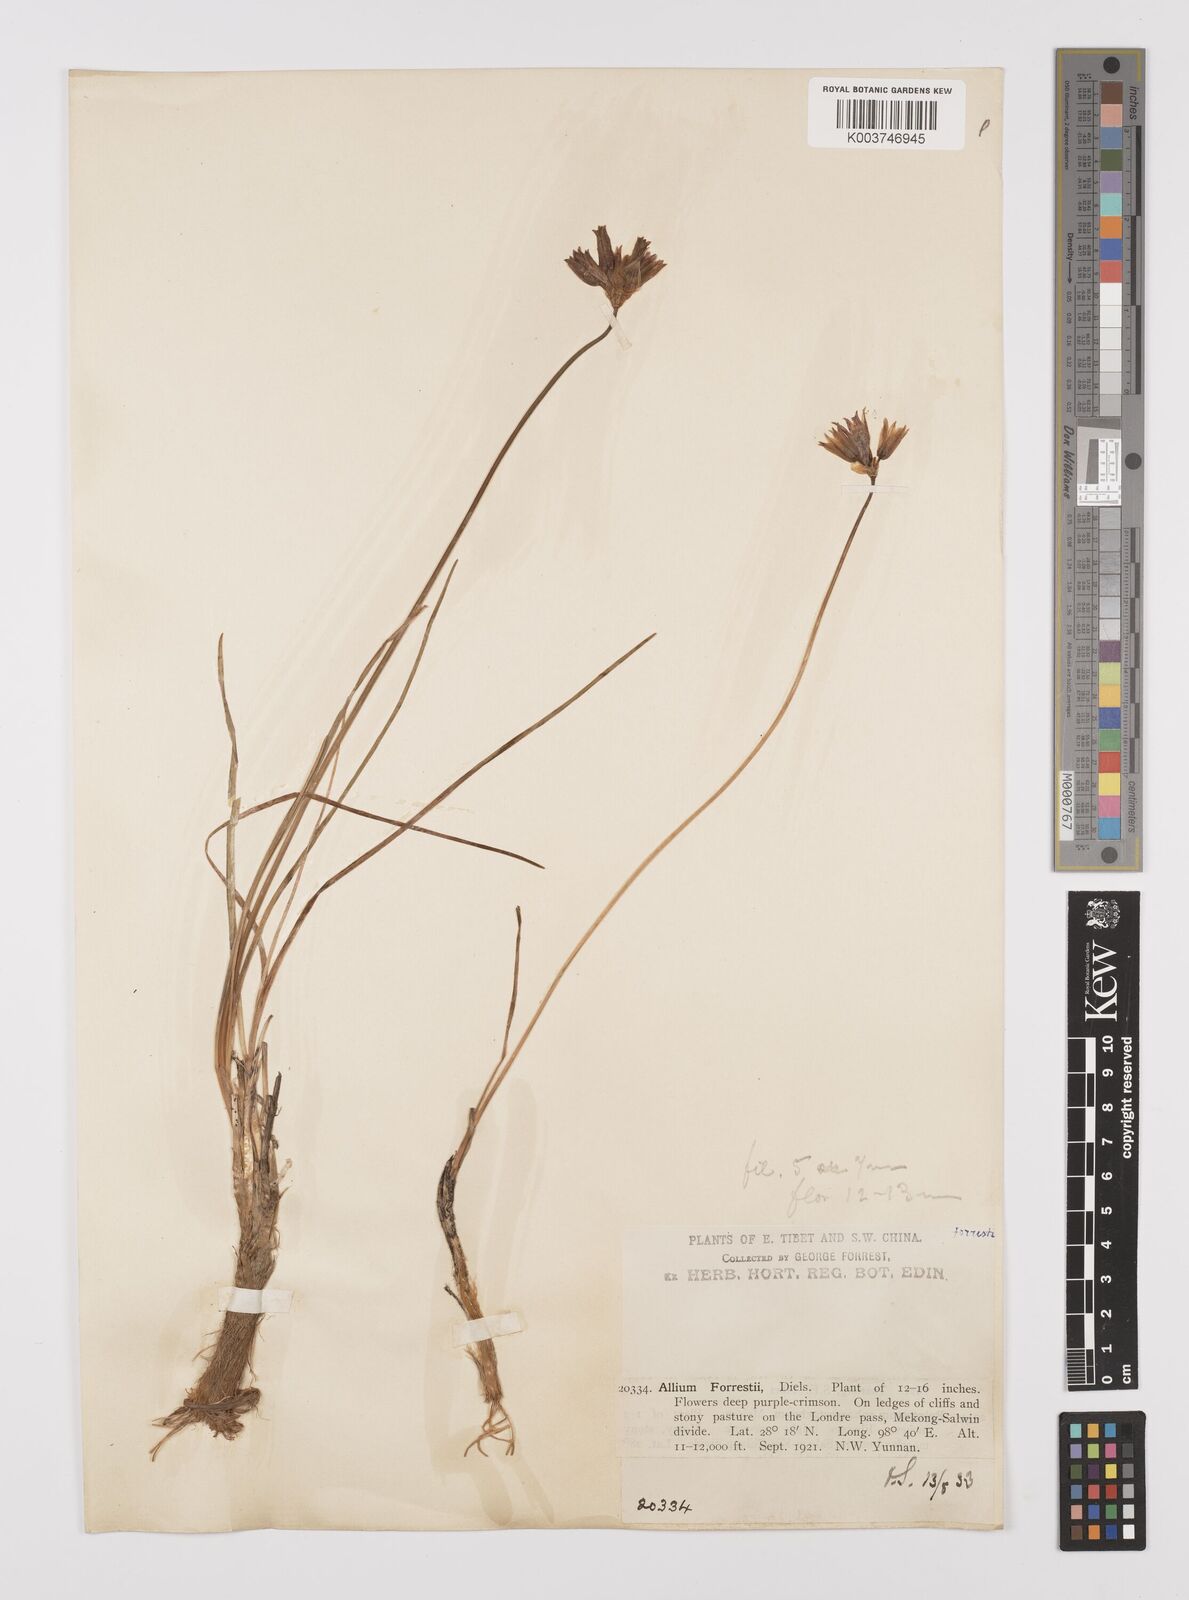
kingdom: Plantae
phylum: Tracheophyta
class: Liliopsida
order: Asparagales
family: Amaryllidaceae
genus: Allium
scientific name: Allium
